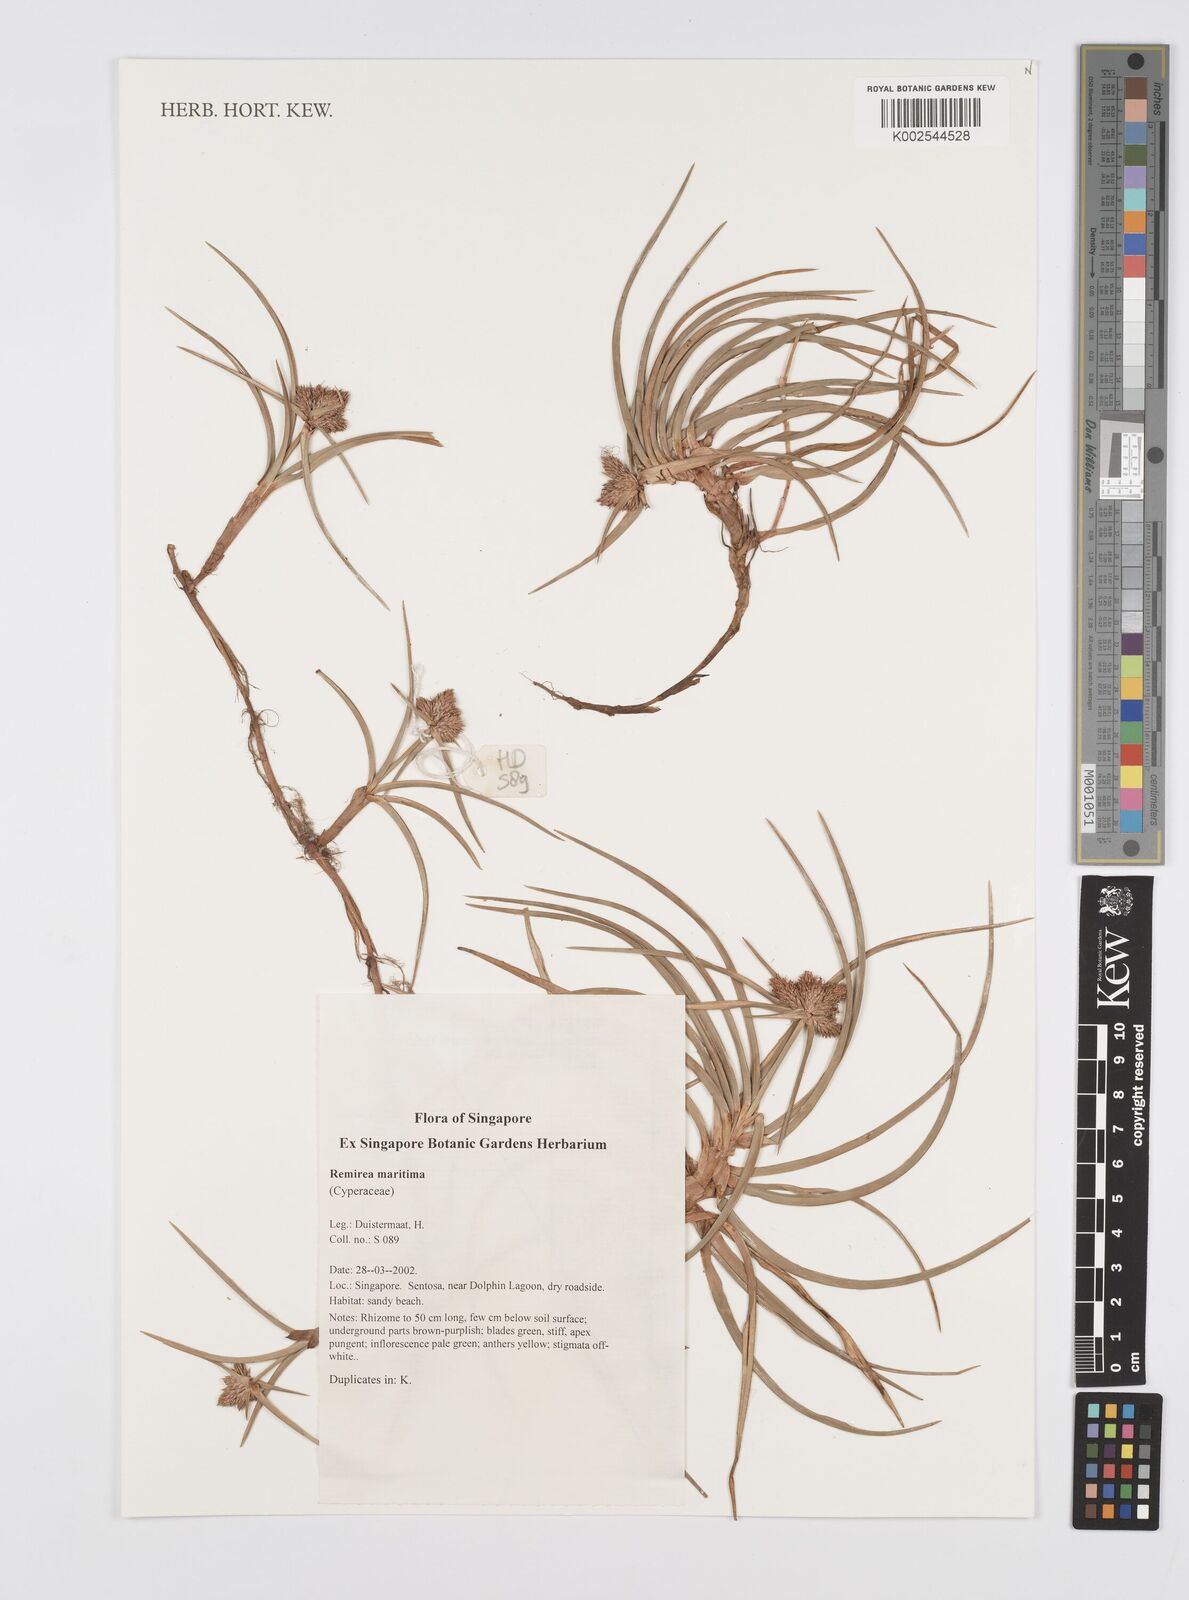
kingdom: Plantae
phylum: Tracheophyta
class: Liliopsida
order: Poales
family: Cyperaceae
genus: Cyperus
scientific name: Cyperus
